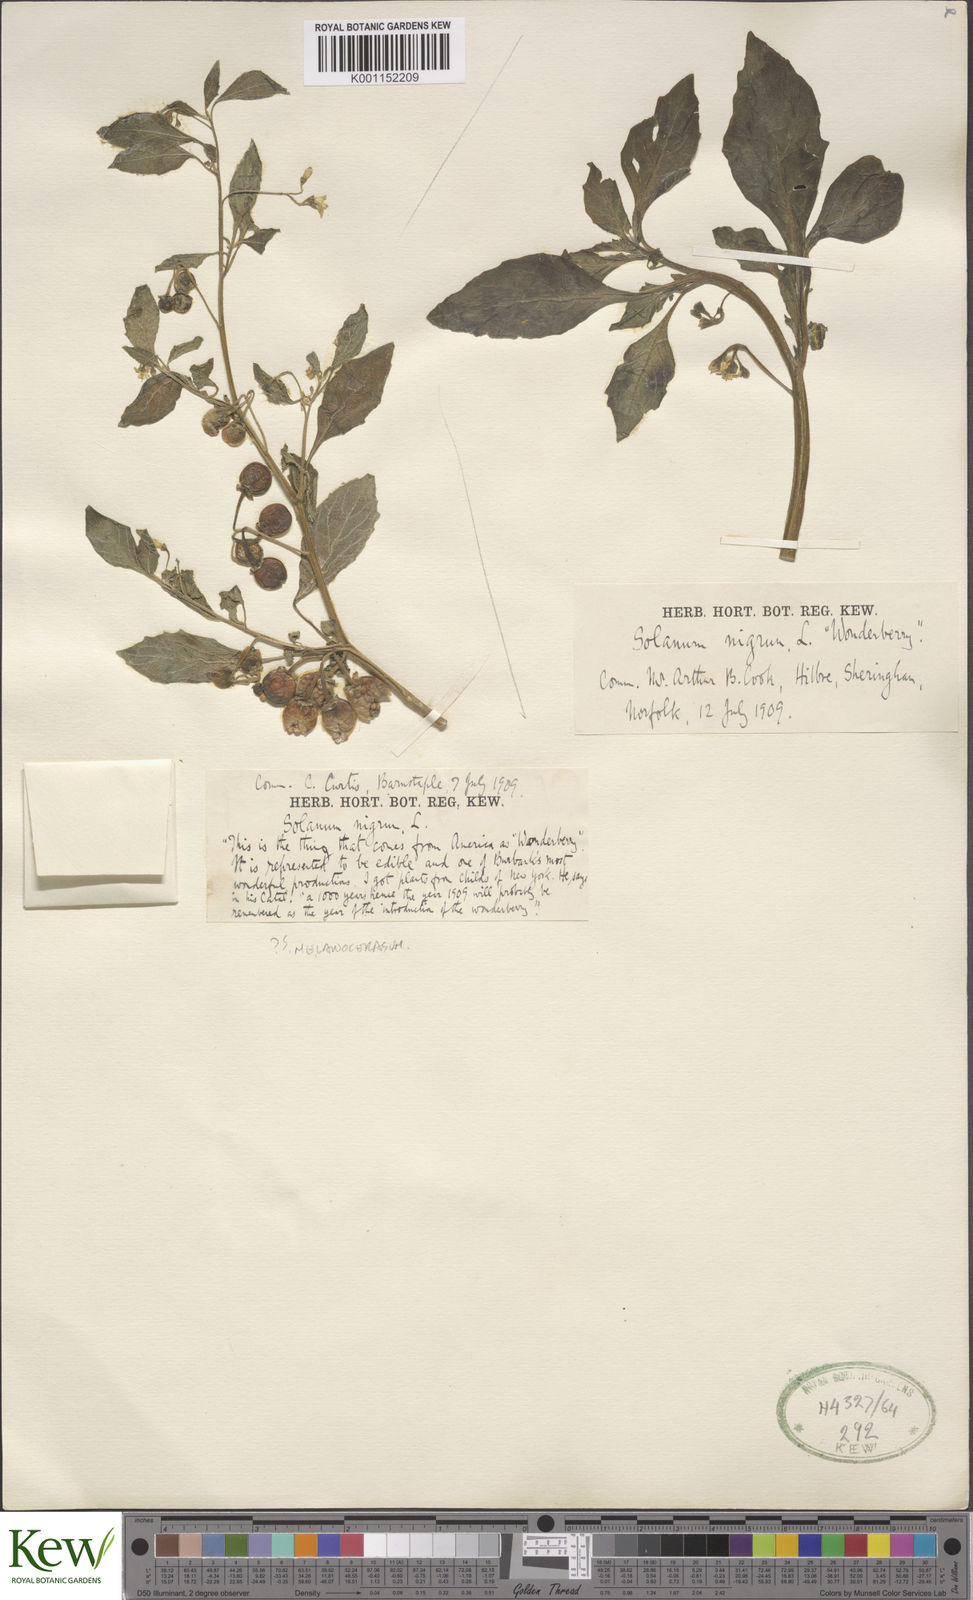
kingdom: Plantae
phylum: Tracheophyta
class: Magnoliopsida
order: Solanales
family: Solanaceae
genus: Solanum
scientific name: Solanum scabrum
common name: Garden-huckleberry
